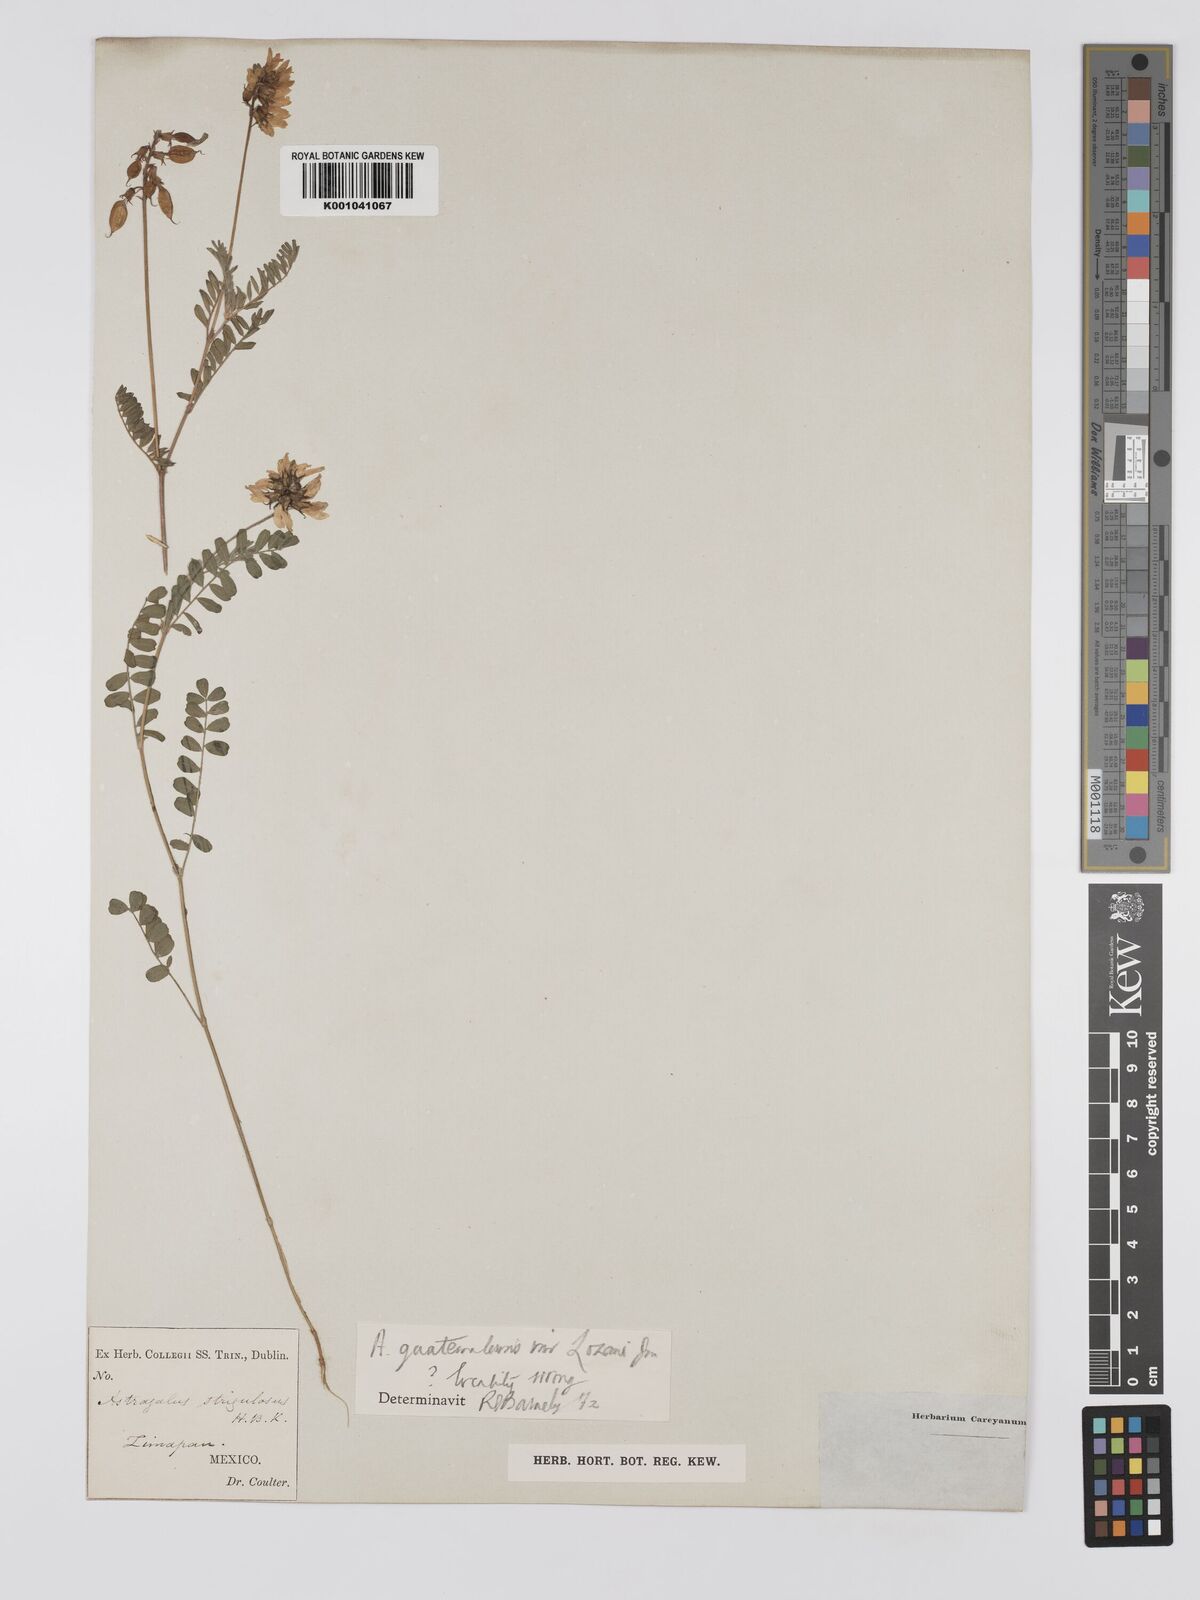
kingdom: Plantae
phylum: Tracheophyta
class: Magnoliopsida
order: Fabales
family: Fabaceae
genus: Astragalus
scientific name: Astragalus guatemalensis
